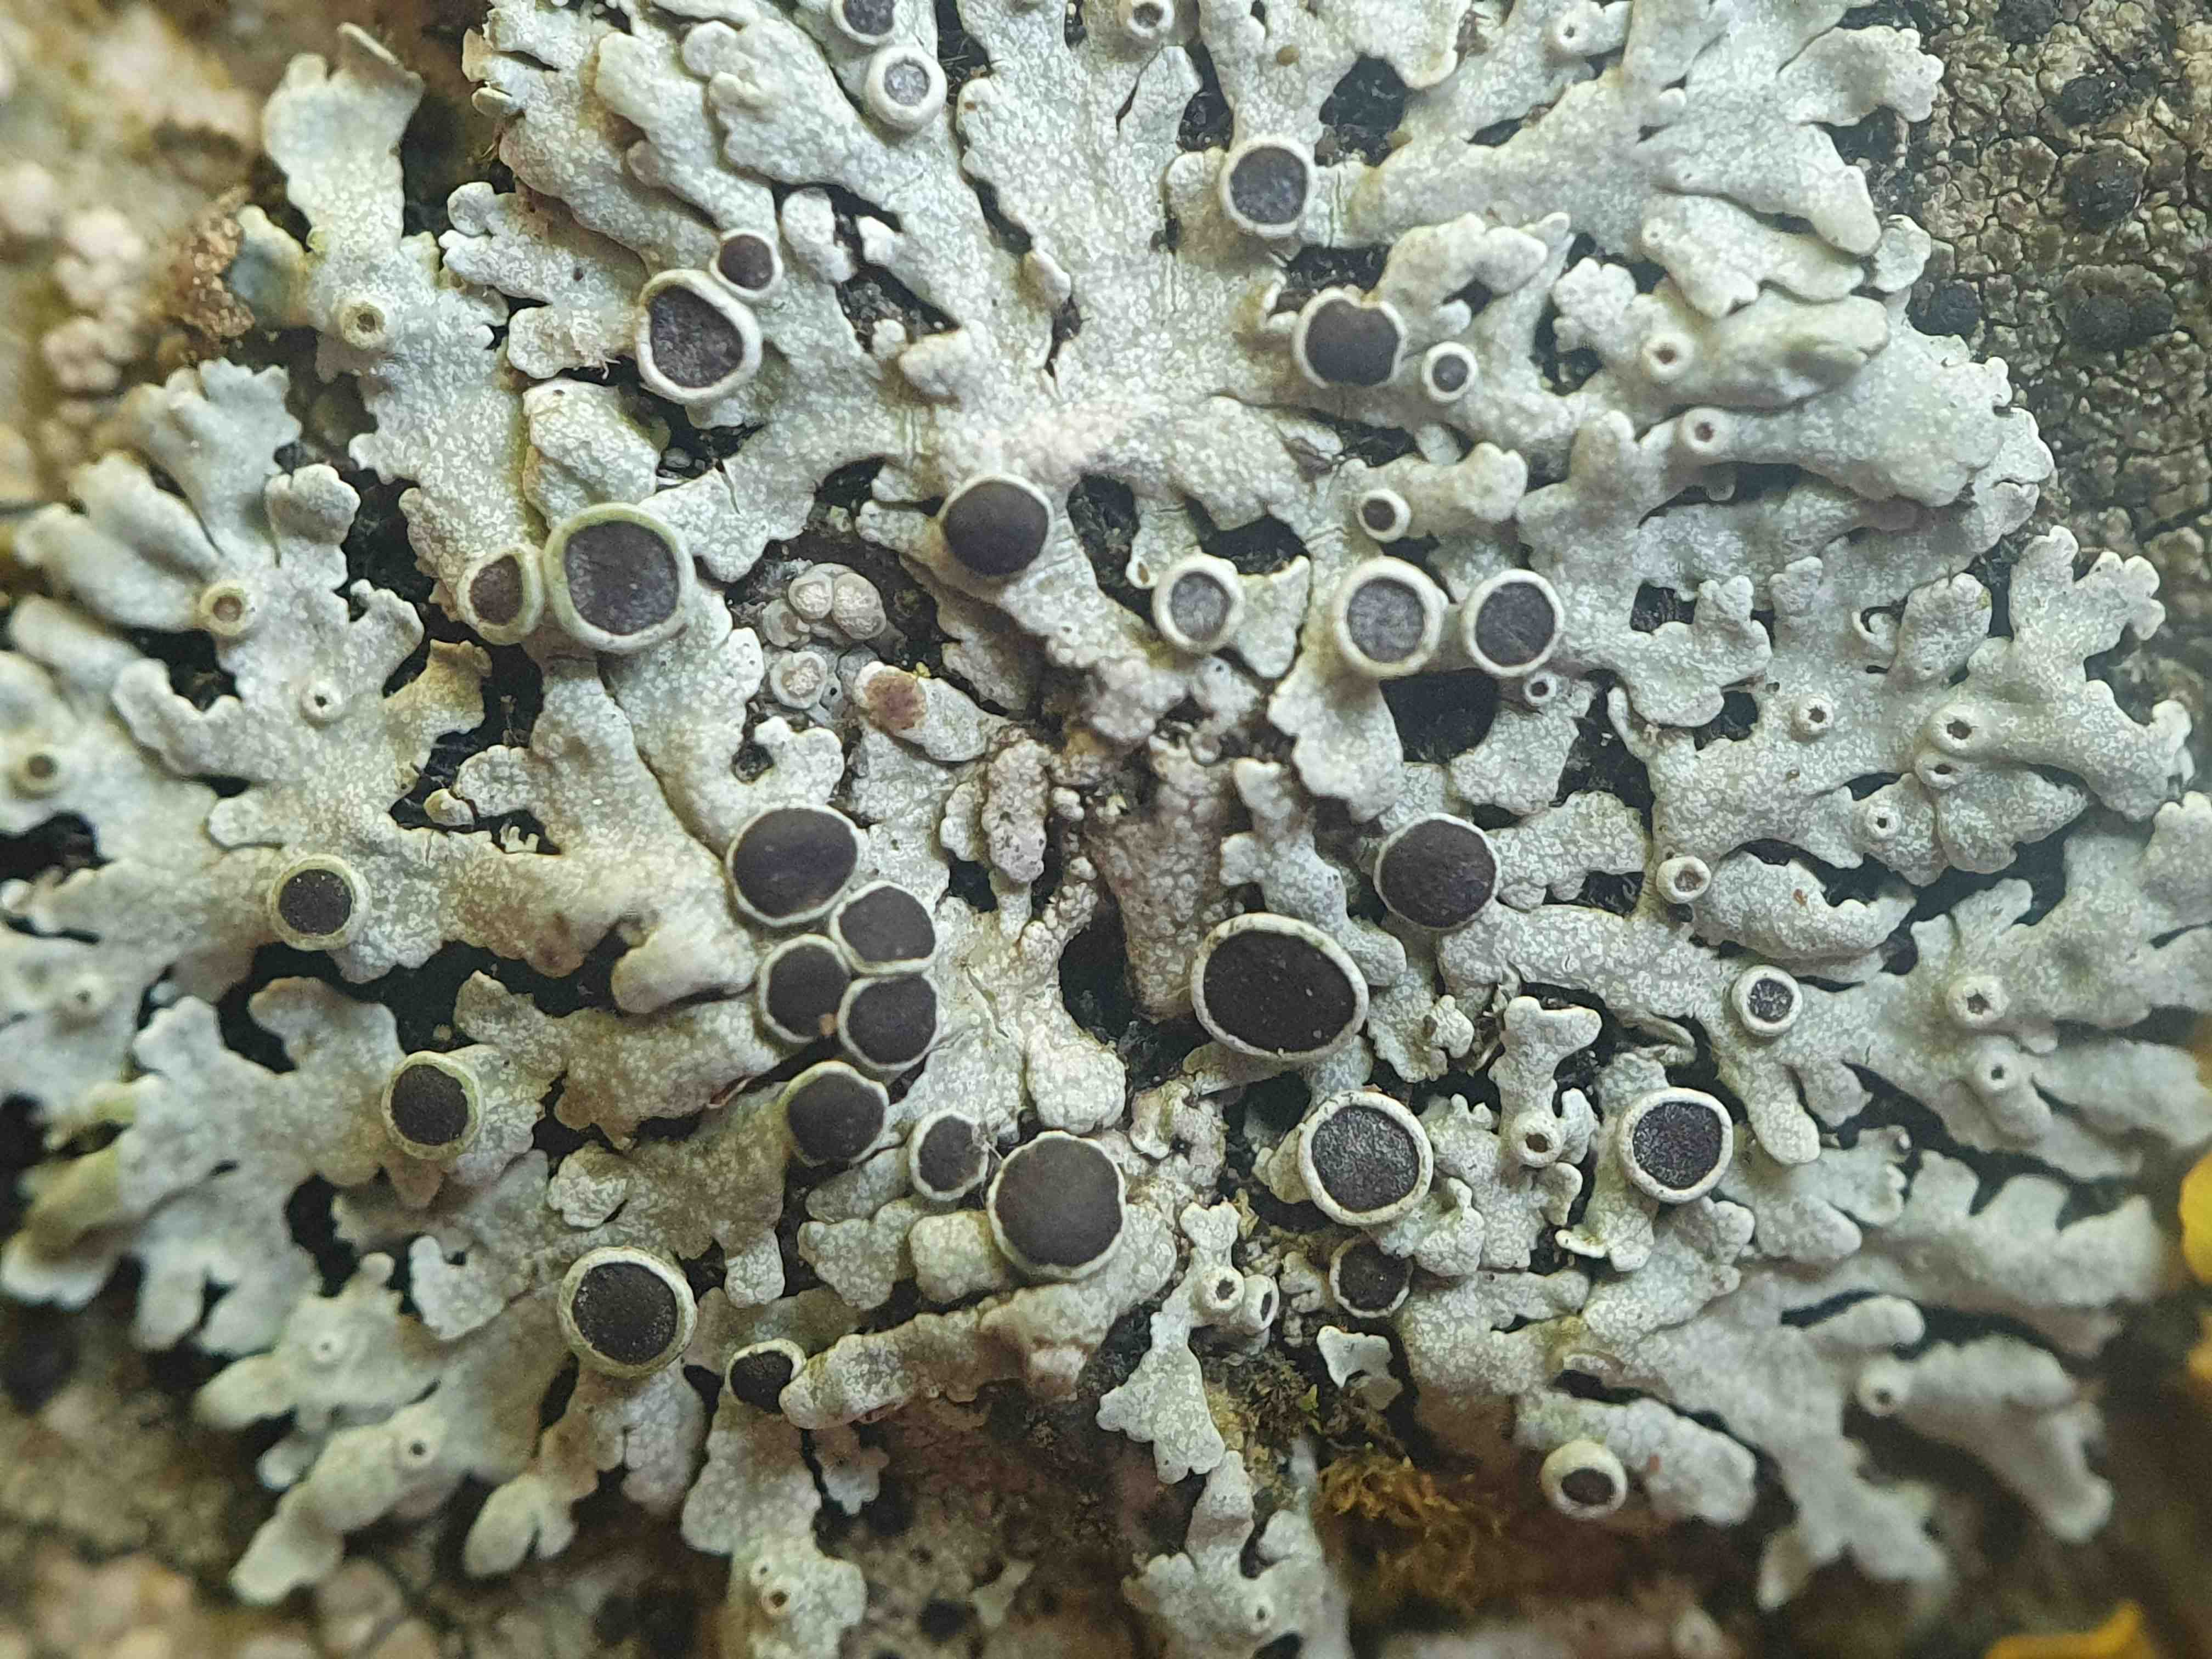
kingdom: Fungi
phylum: Ascomycota
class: Lecanoromycetes
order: Caliciales
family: Physciaceae
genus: Physcia
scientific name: Physcia aipolia
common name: hvidprikket rosetlav
